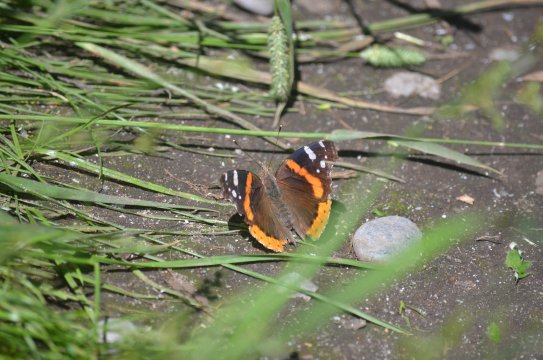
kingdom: Animalia
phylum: Arthropoda
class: Insecta
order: Lepidoptera
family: Nymphalidae
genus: Vanessa
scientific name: Vanessa atalanta
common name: Red Admiral
